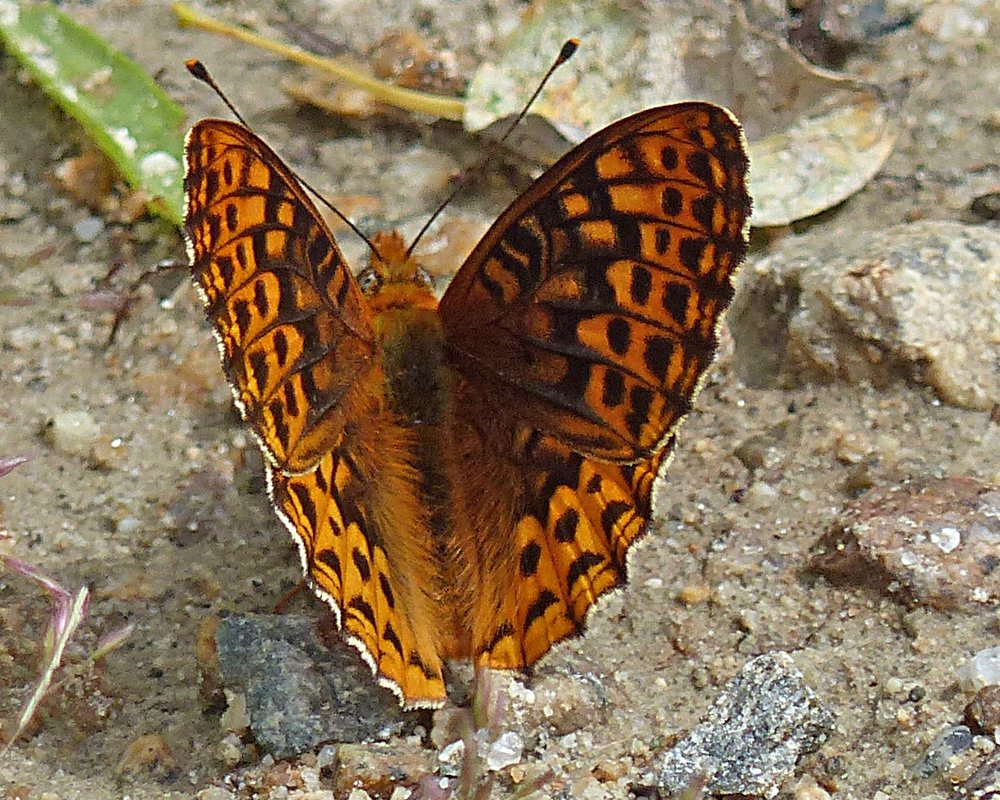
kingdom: Animalia
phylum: Arthropoda
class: Insecta
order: Lepidoptera
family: Nymphalidae
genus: Speyeria
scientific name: Speyeria hydaspe
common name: Hydaspe Fritillary
